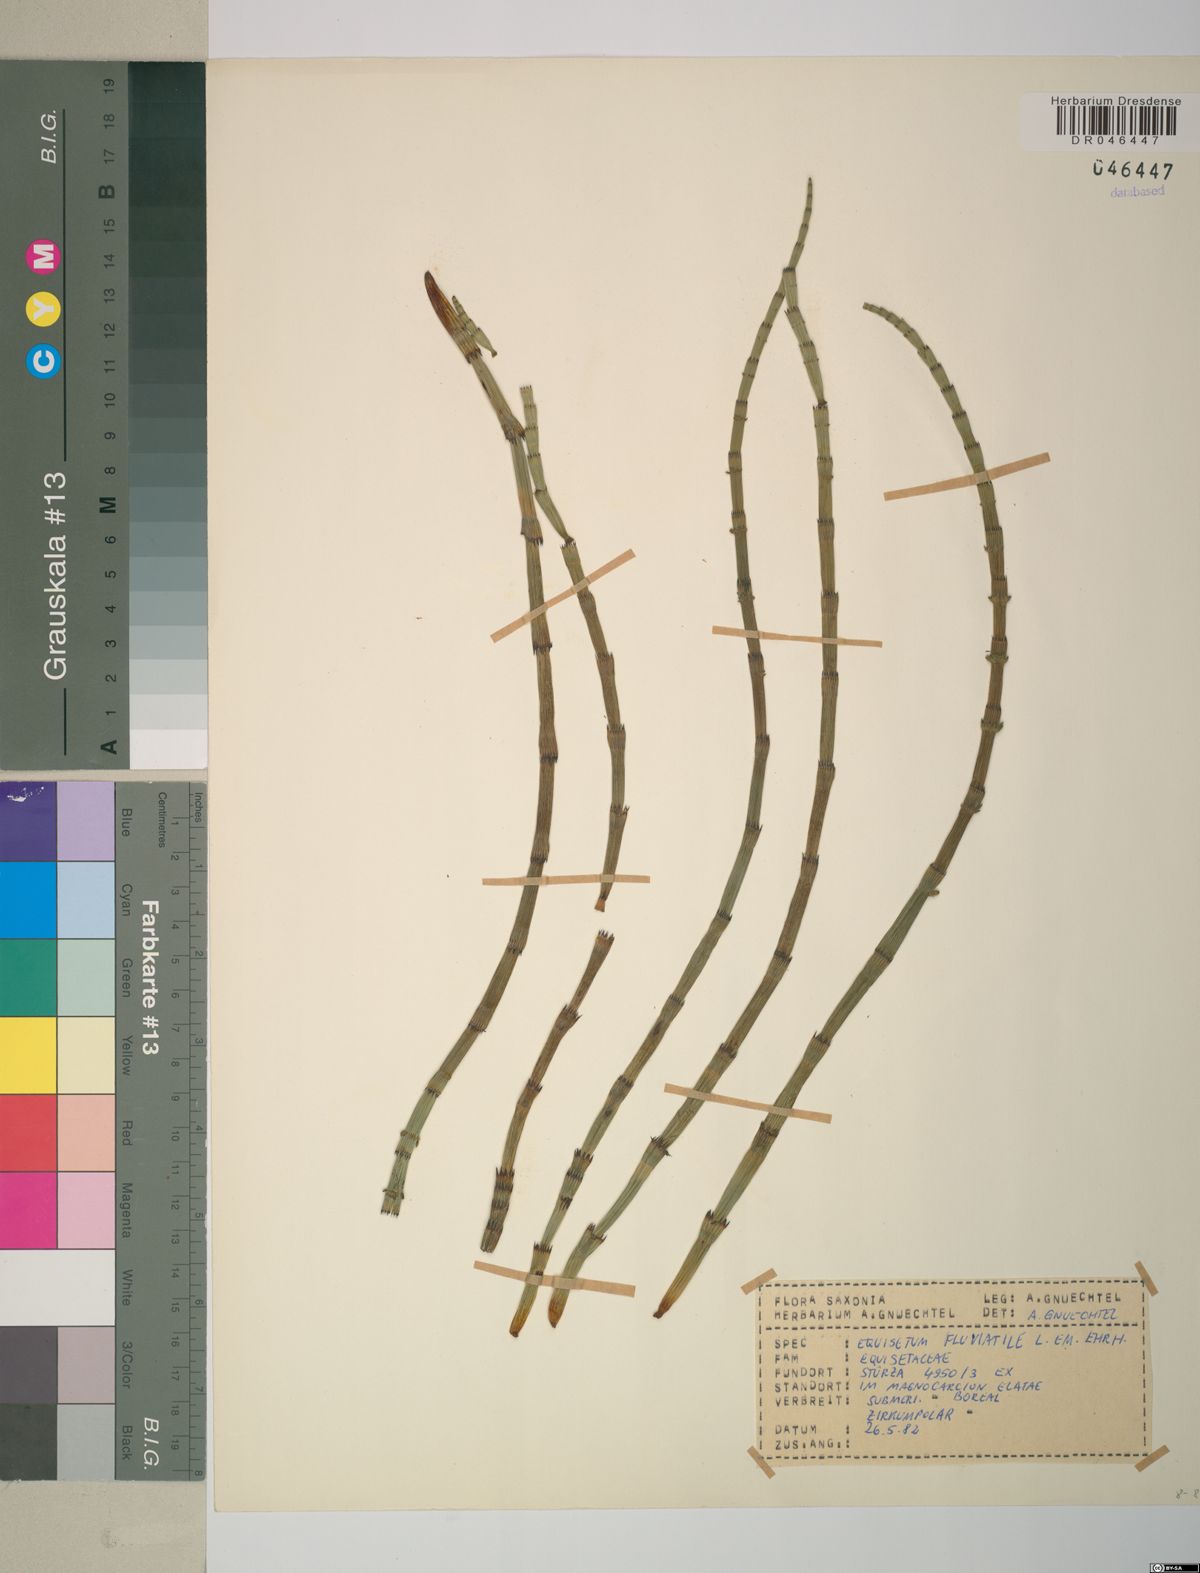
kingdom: Plantae
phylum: Tracheophyta
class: Polypodiopsida
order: Equisetales
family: Equisetaceae
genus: Equisetum
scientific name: Equisetum fluviatile
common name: Water horsetail
